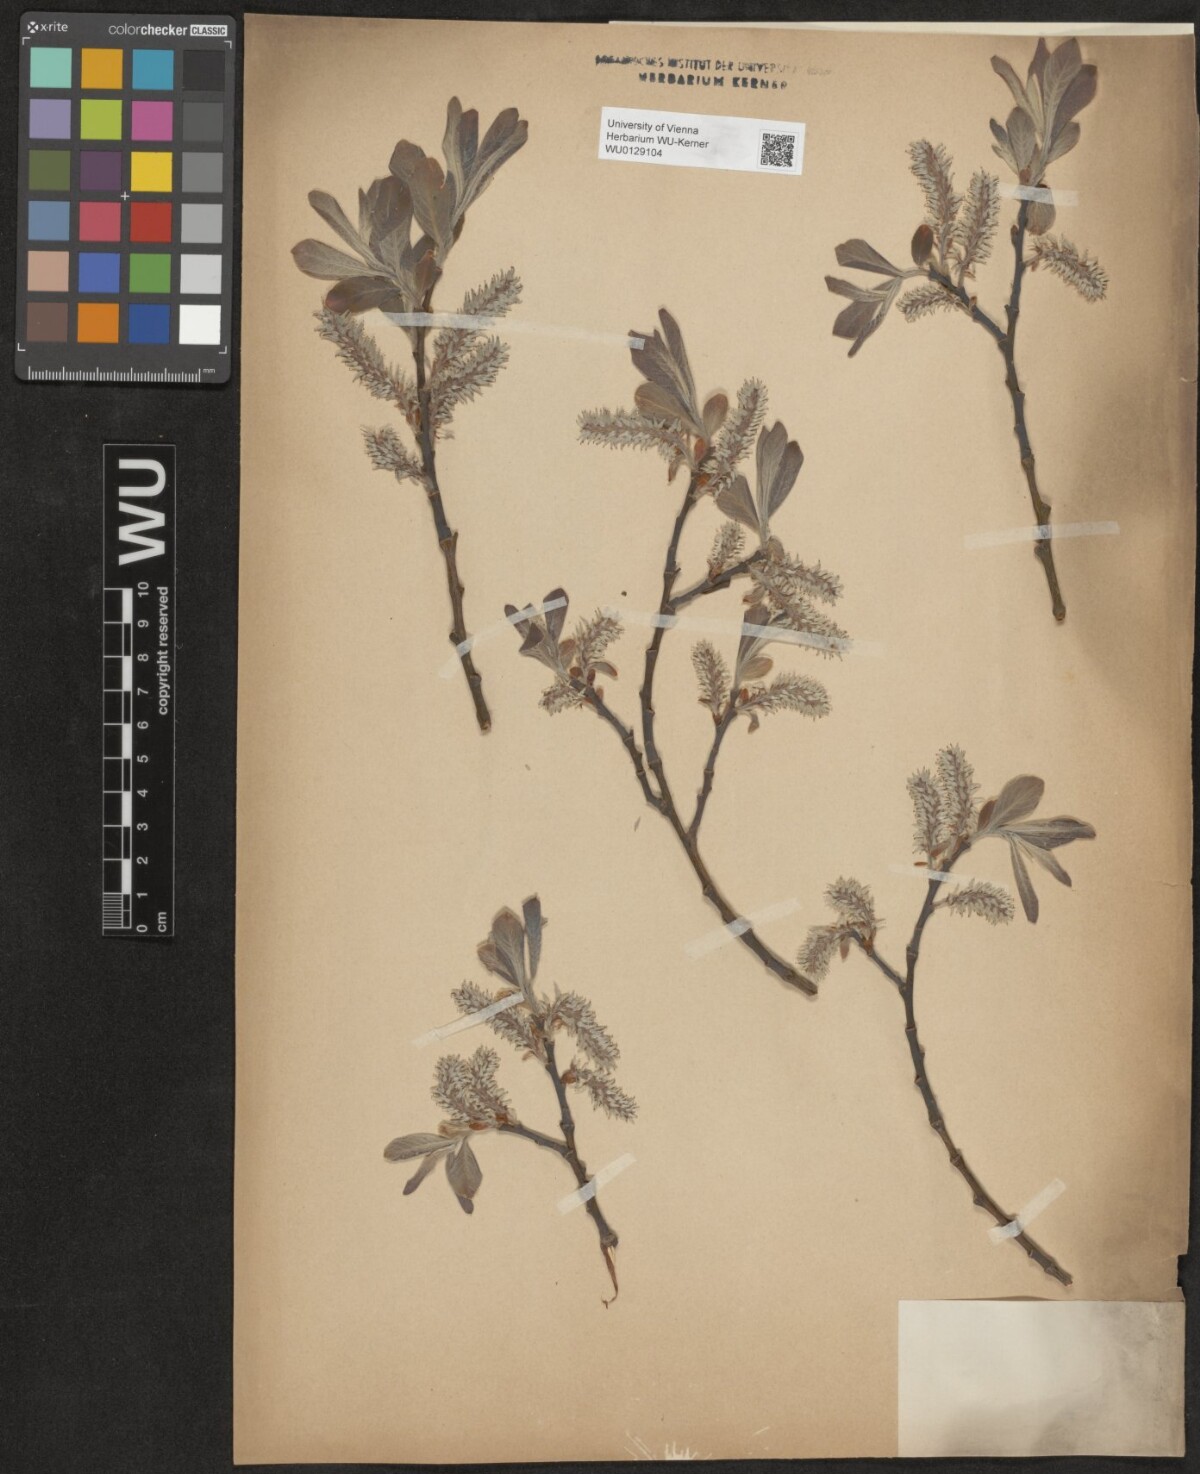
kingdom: Plantae
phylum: Tracheophyta
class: Magnoliopsida
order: Malpighiales
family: Salicaceae
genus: Salix
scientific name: Salix cinerea
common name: Common sallow
